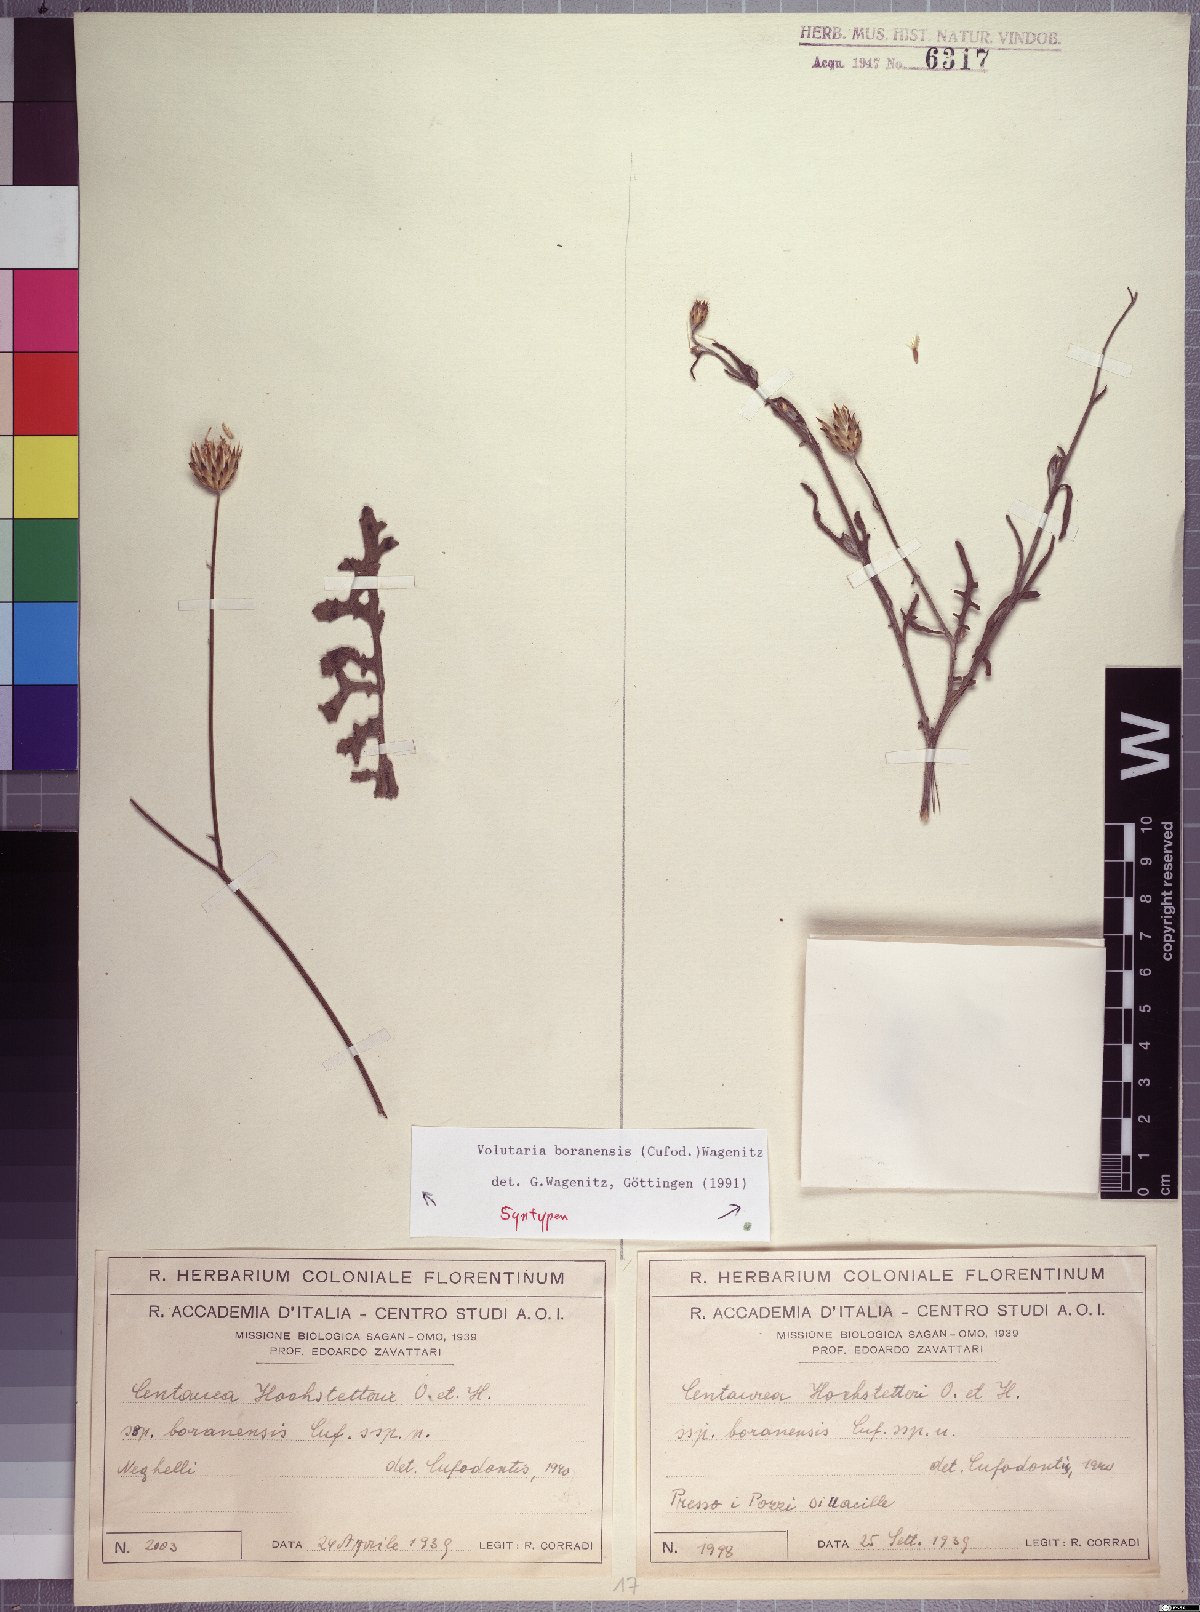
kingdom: Plantae
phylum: Tracheophyta
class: Magnoliopsida
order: Asterales
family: Asteraceae
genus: Volutaria
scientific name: Volutaria boranensis
